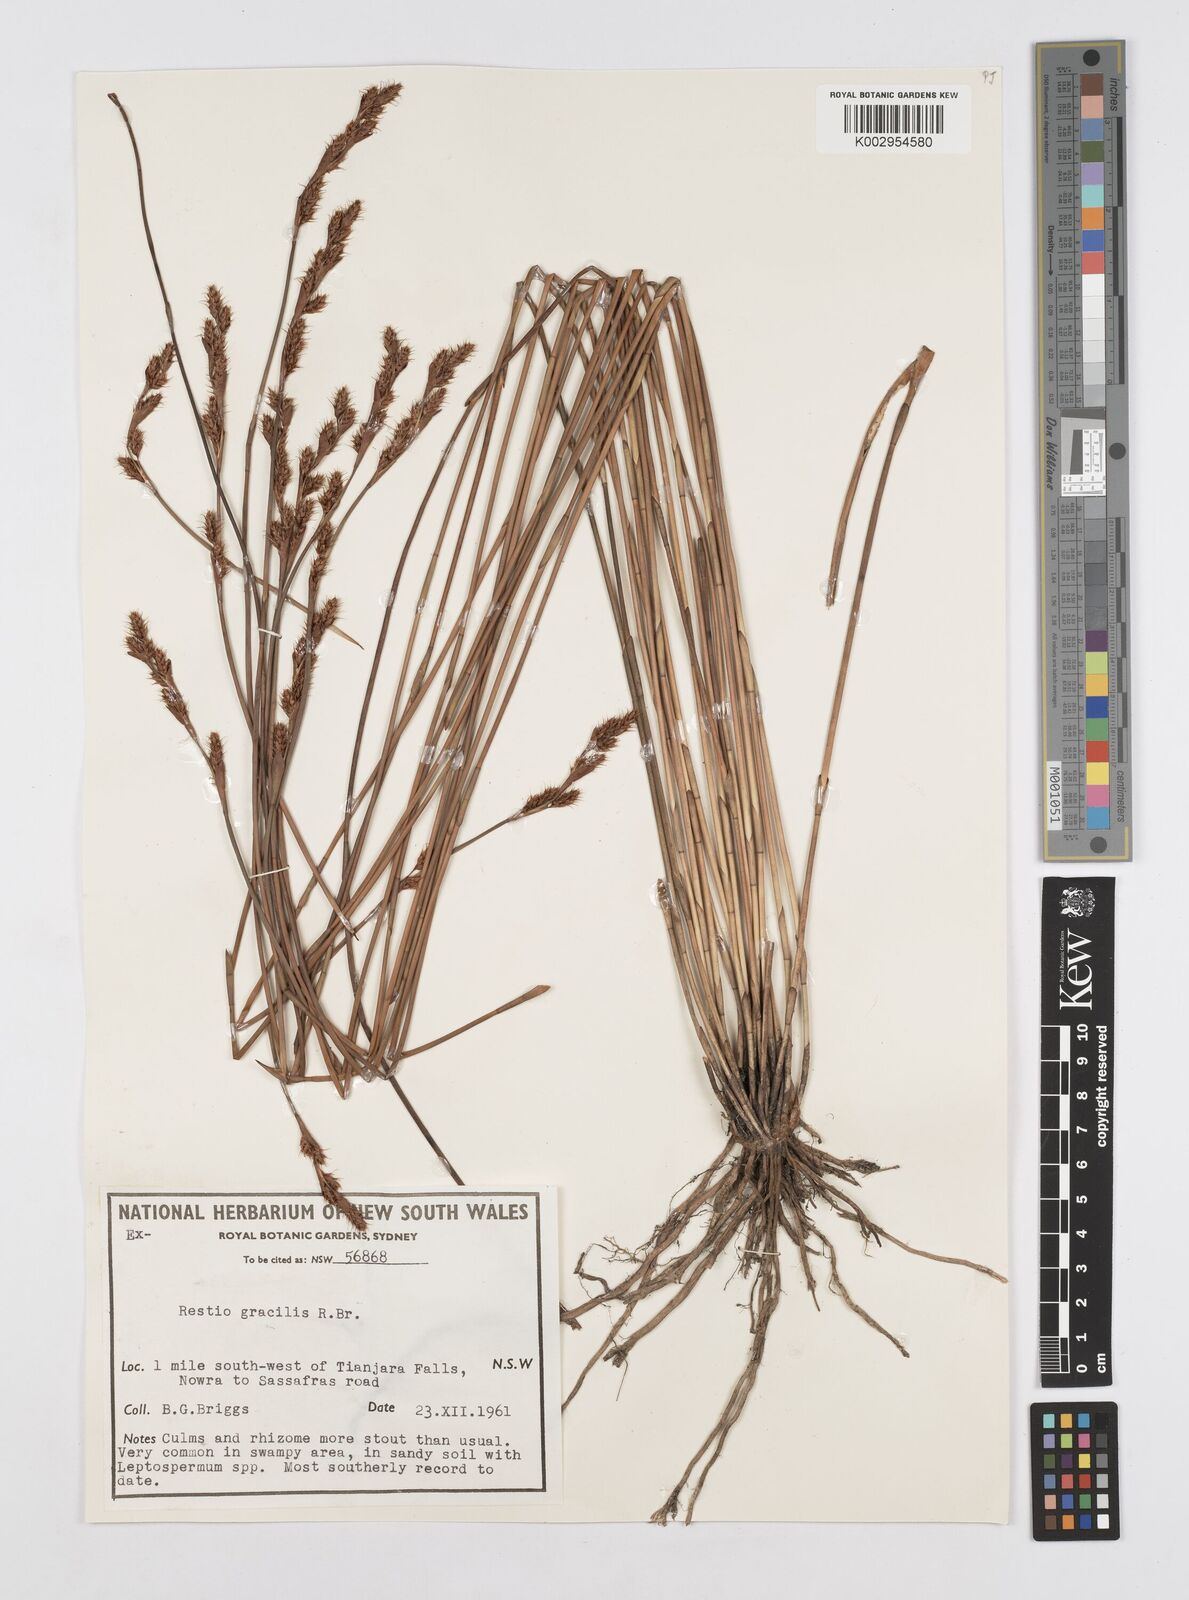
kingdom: Plantae
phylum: Tracheophyta
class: Liliopsida
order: Poales
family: Restionaceae
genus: Baloskion
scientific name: Baloskion gracile
